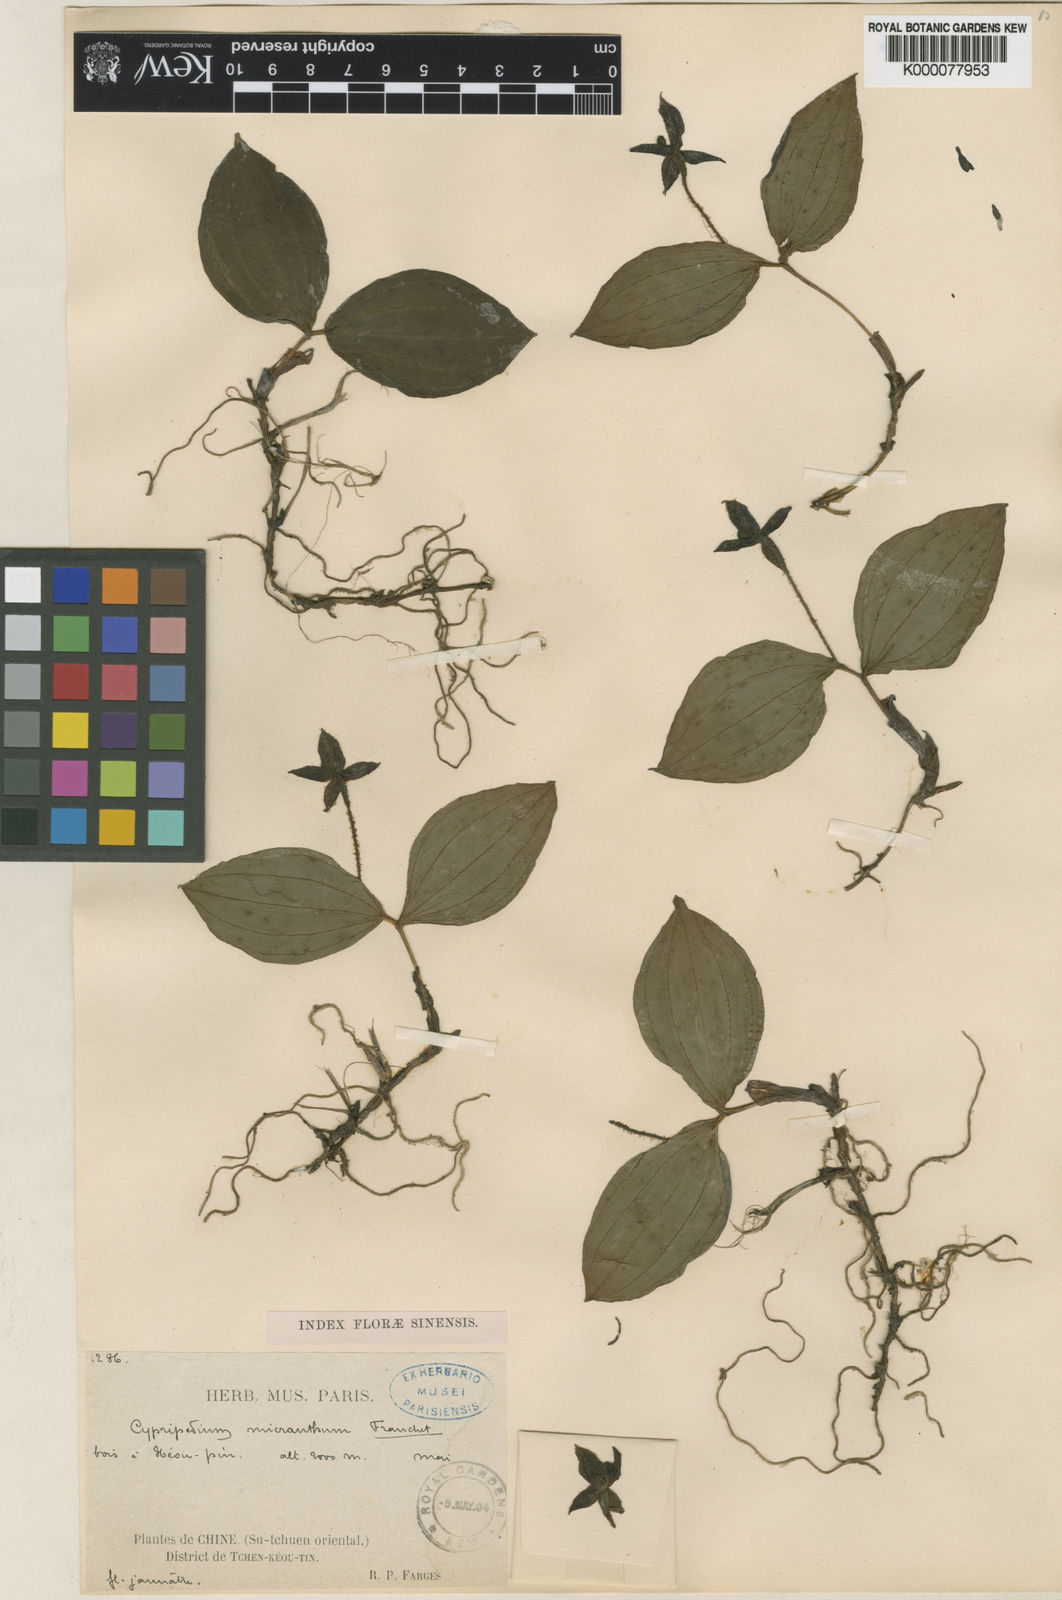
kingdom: Plantae
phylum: Tracheophyta
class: Liliopsida
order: Asparagales
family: Orchidaceae
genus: Cypripedium
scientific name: Cypripedium micranthum
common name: Small flowered cypripedium
